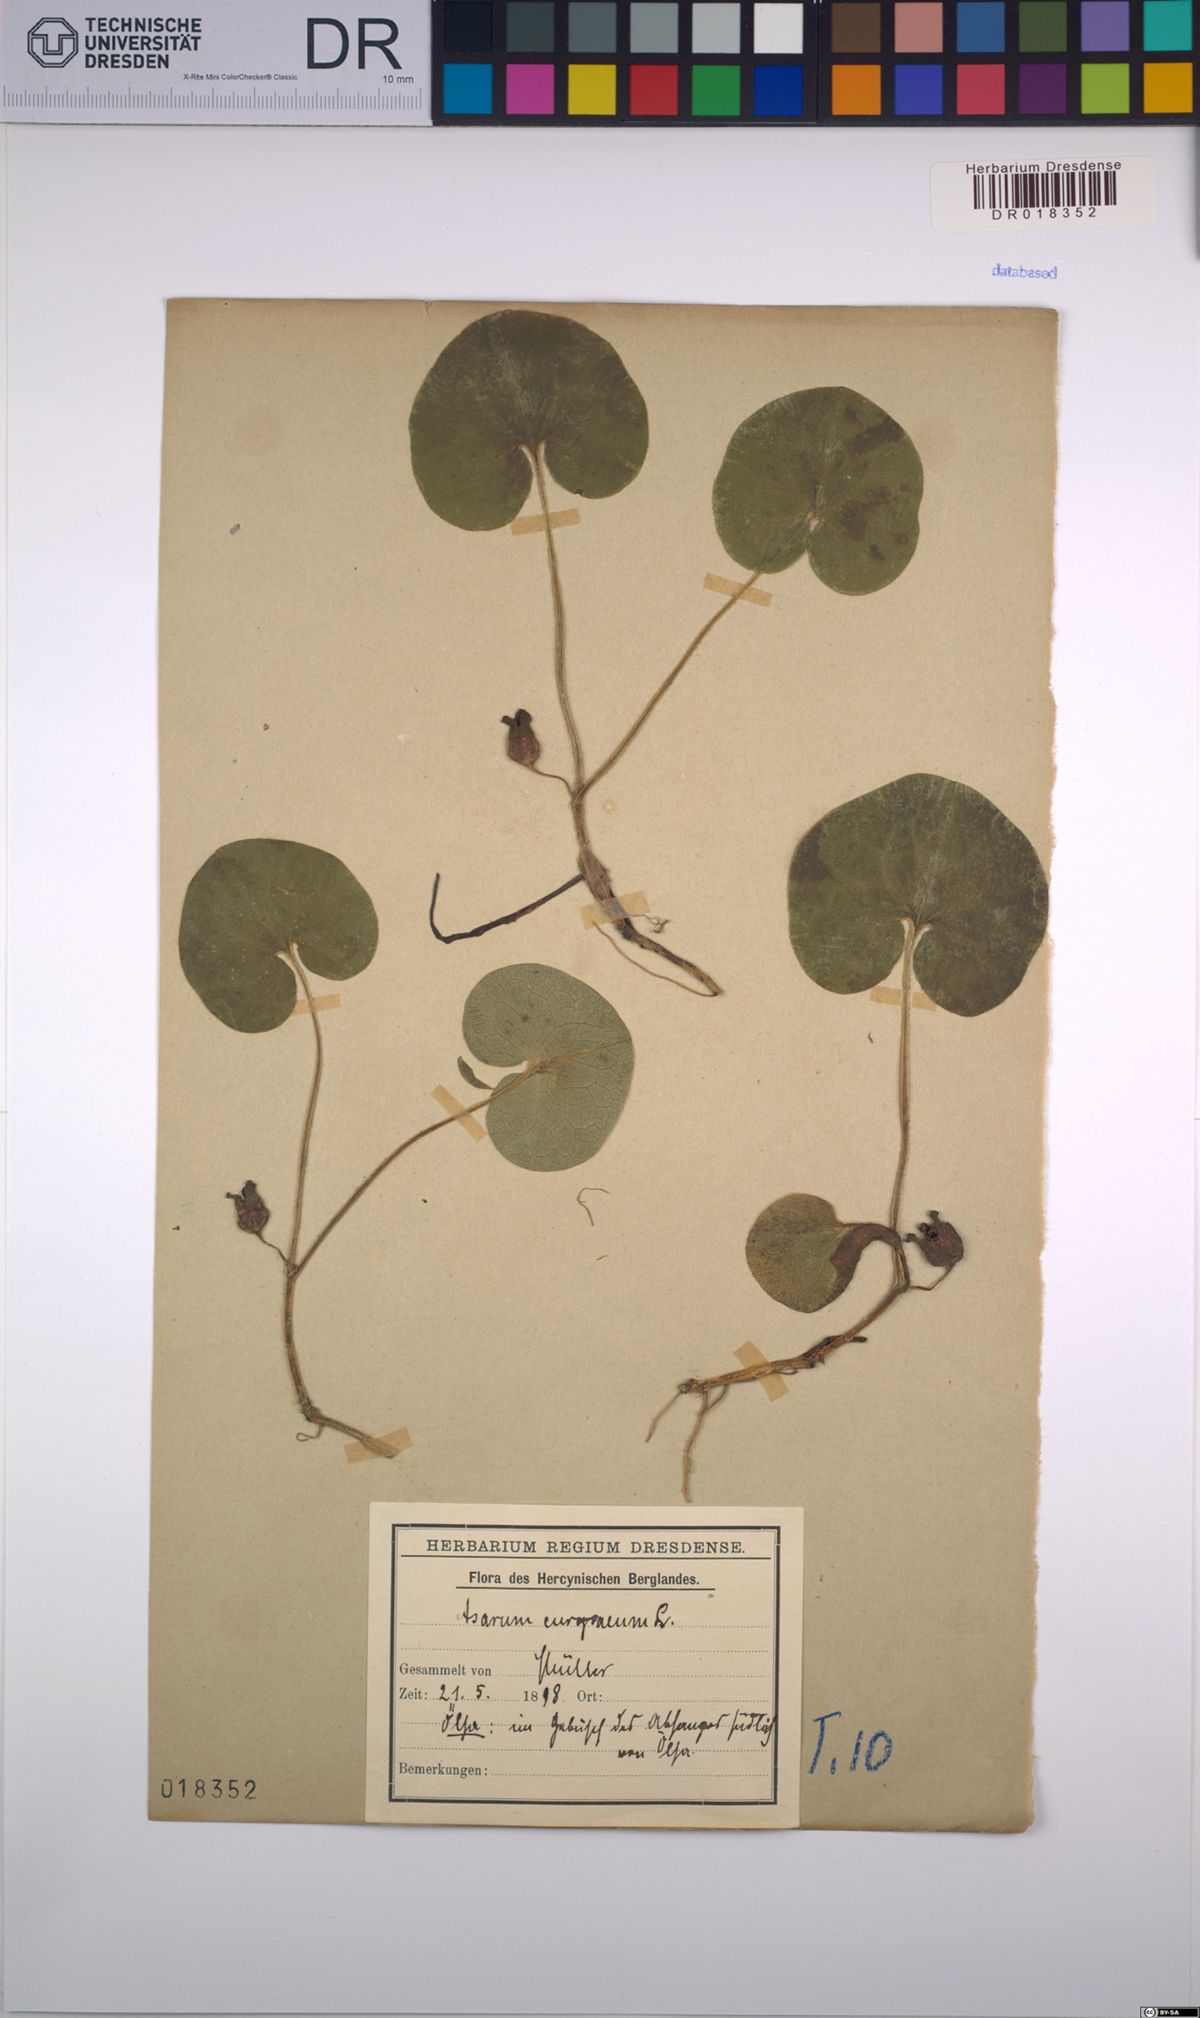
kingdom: Plantae
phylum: Tracheophyta
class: Magnoliopsida
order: Piperales
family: Aristolochiaceae
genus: Asarum
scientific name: Asarum europaeum
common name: Asarabacca
